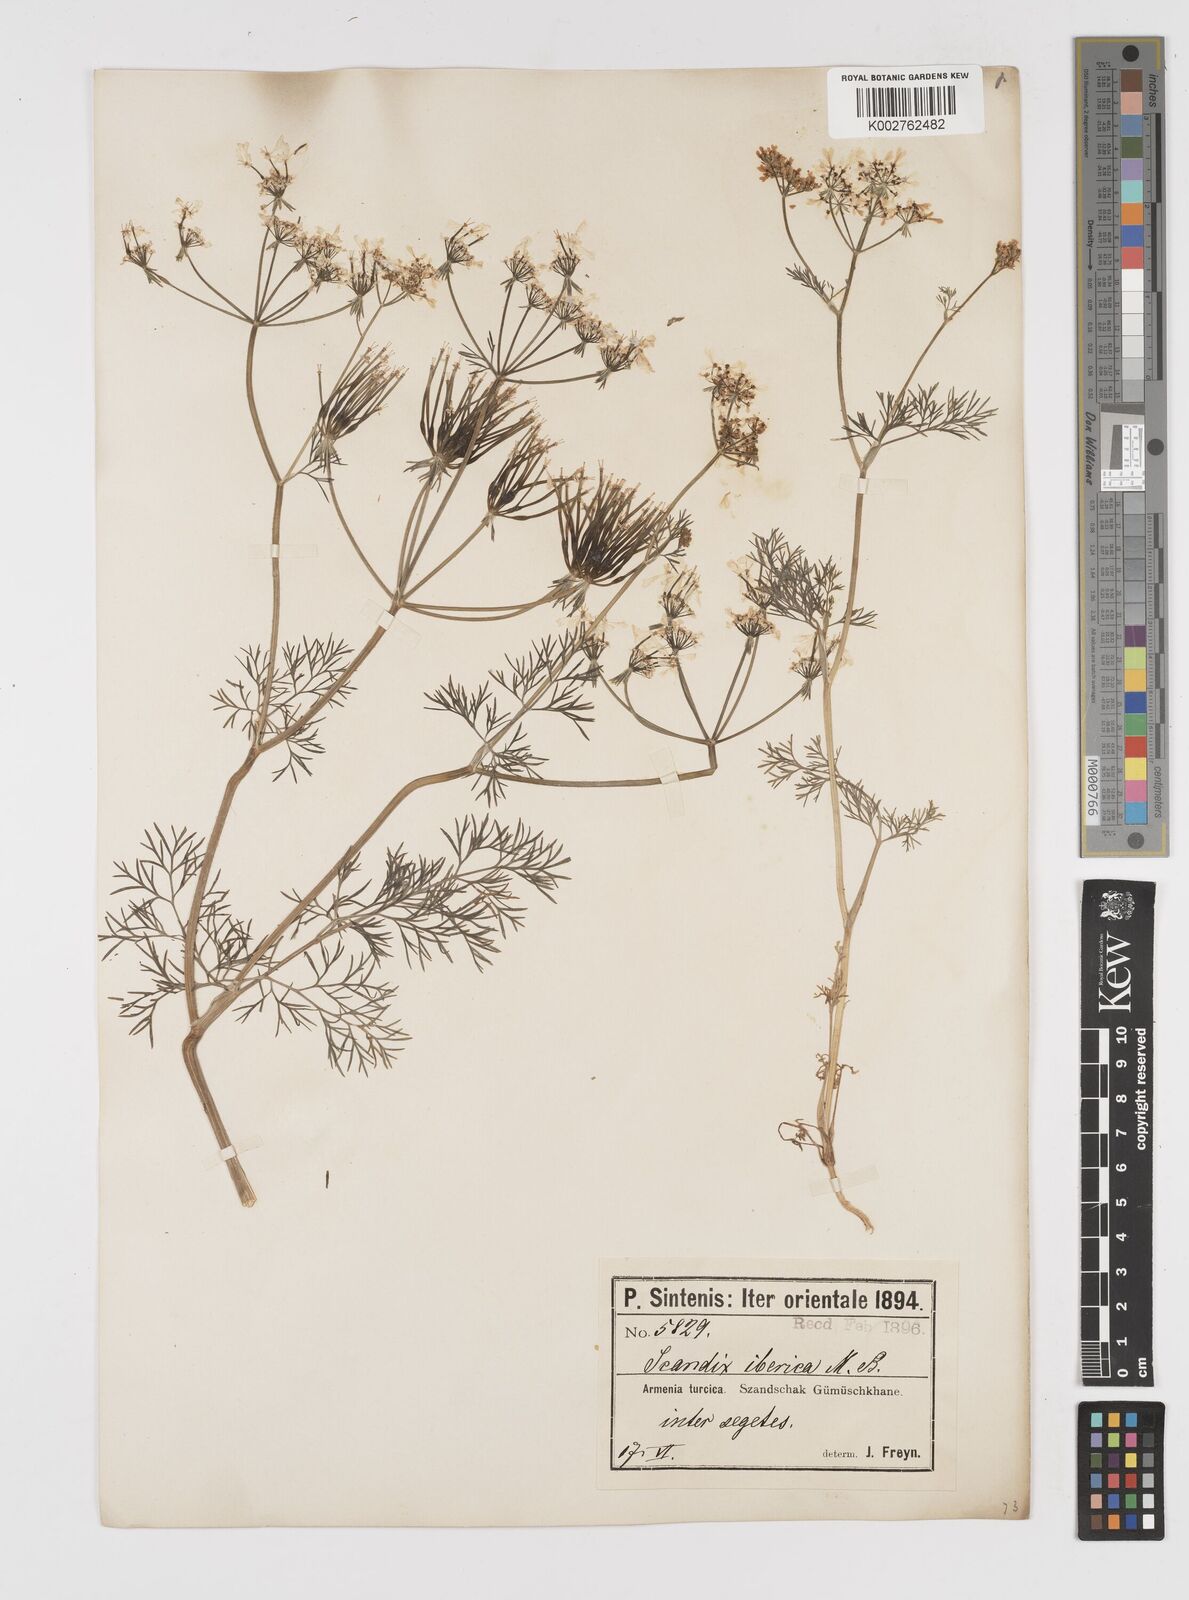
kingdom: Plantae
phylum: Tracheophyta
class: Magnoliopsida
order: Apiales
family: Apiaceae
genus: Scandix
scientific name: Scandix iberica
